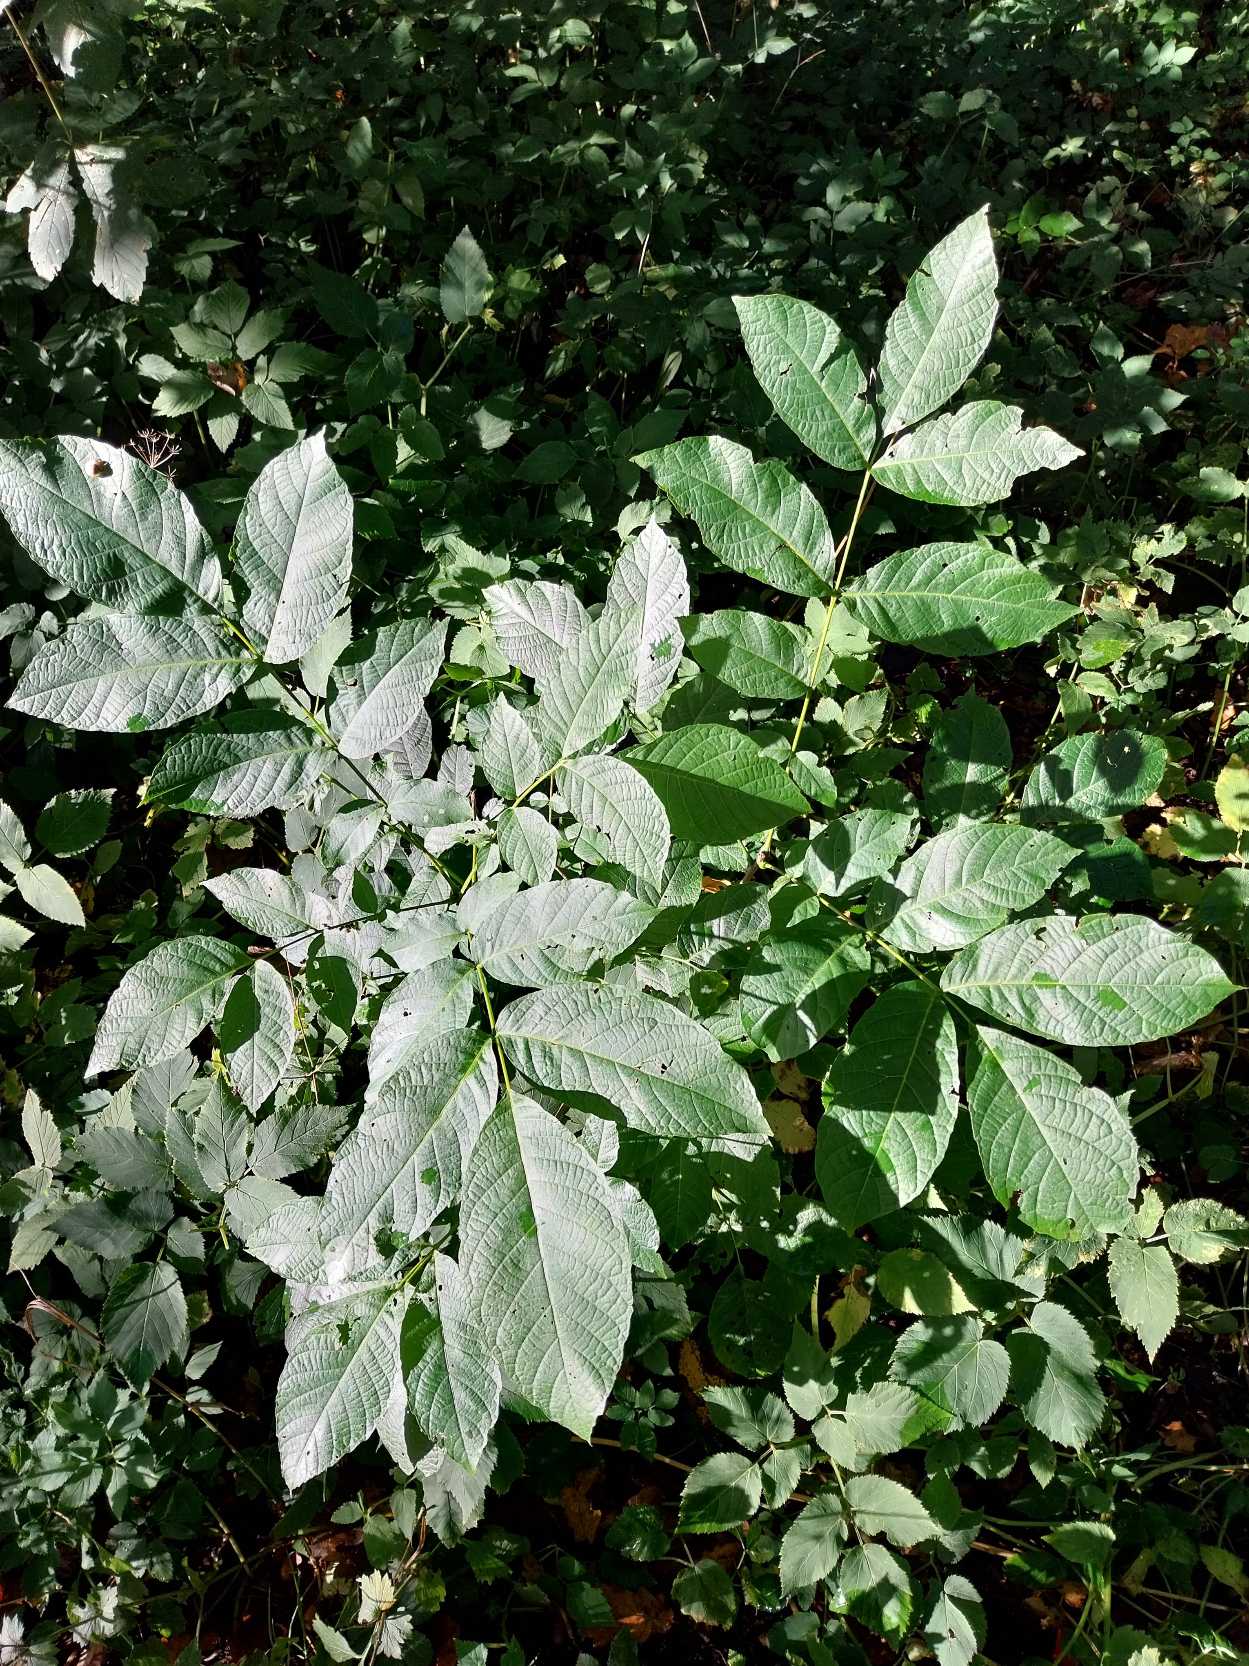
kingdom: Plantae
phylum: Tracheophyta
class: Magnoliopsida
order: Fagales
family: Juglandaceae
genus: Juglans
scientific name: Juglans regia
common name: Almindelig valnød
